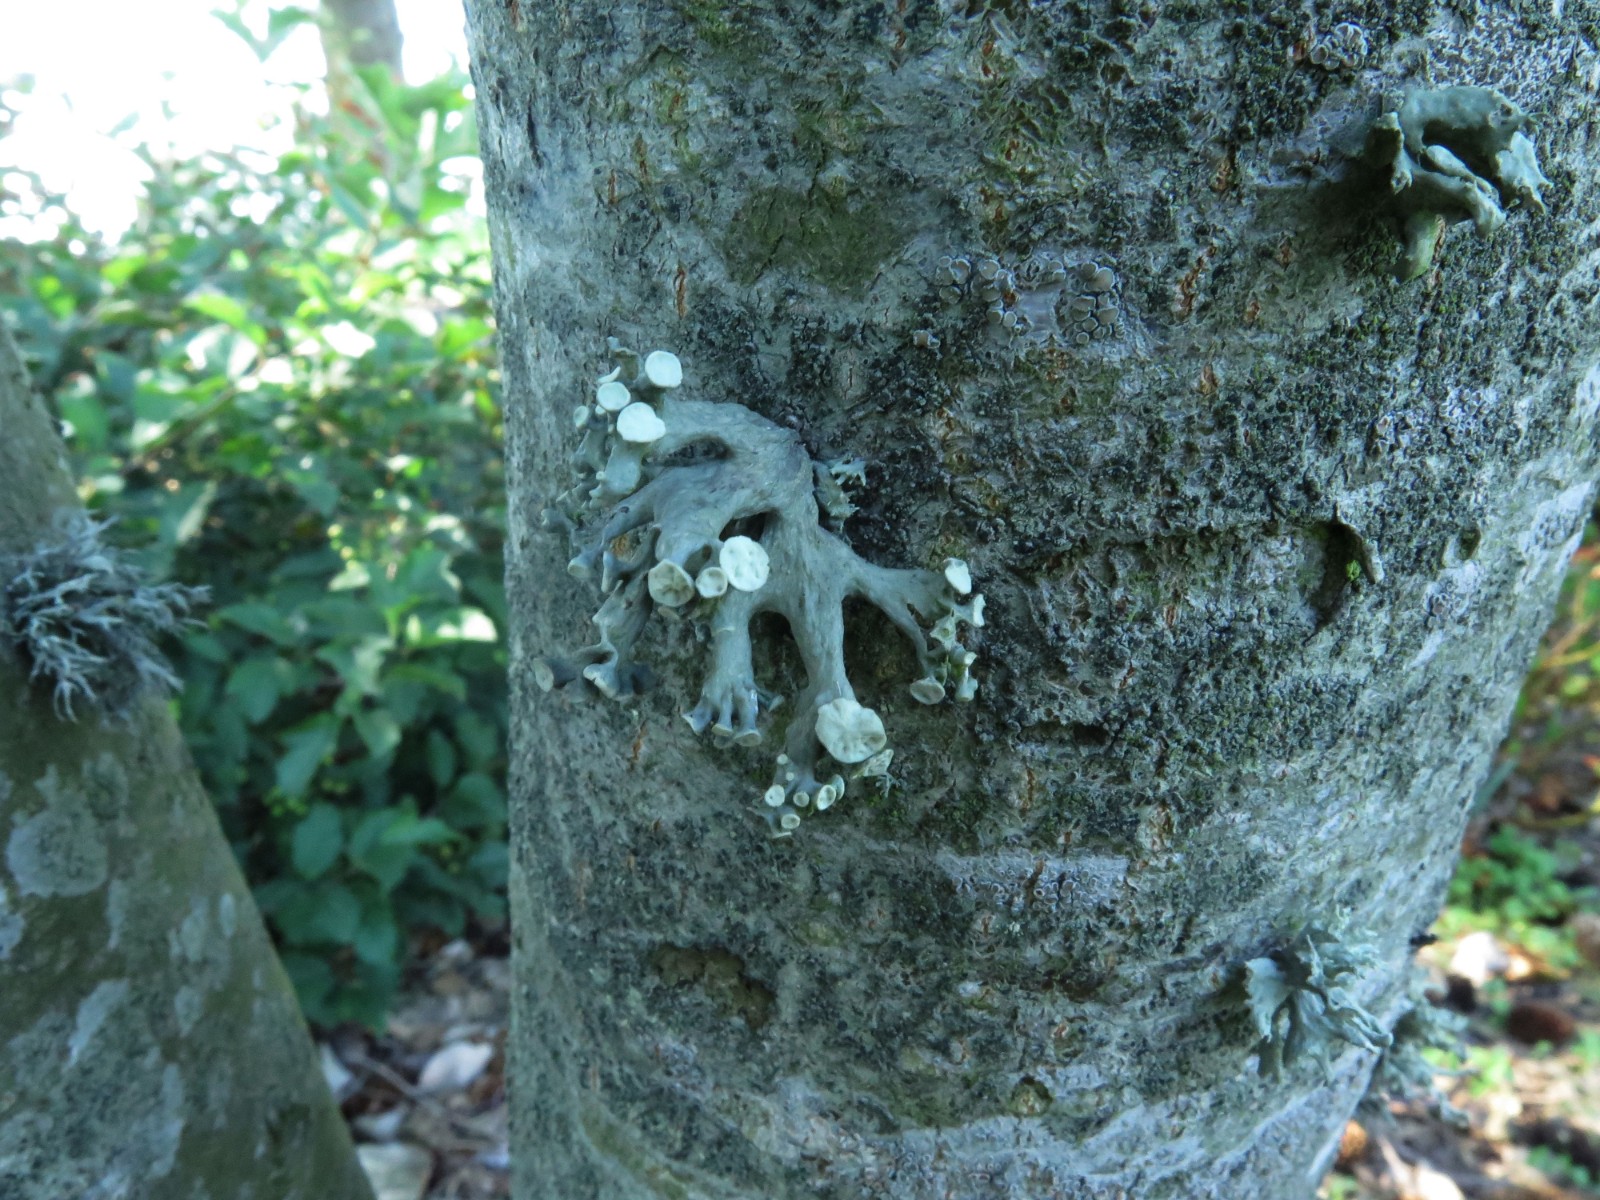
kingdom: Fungi
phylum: Ascomycota
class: Lecanoromycetes
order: Lecanorales
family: Ramalinaceae
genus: Ramalina
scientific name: Ramalina fastigiata
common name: tue-grenlav
